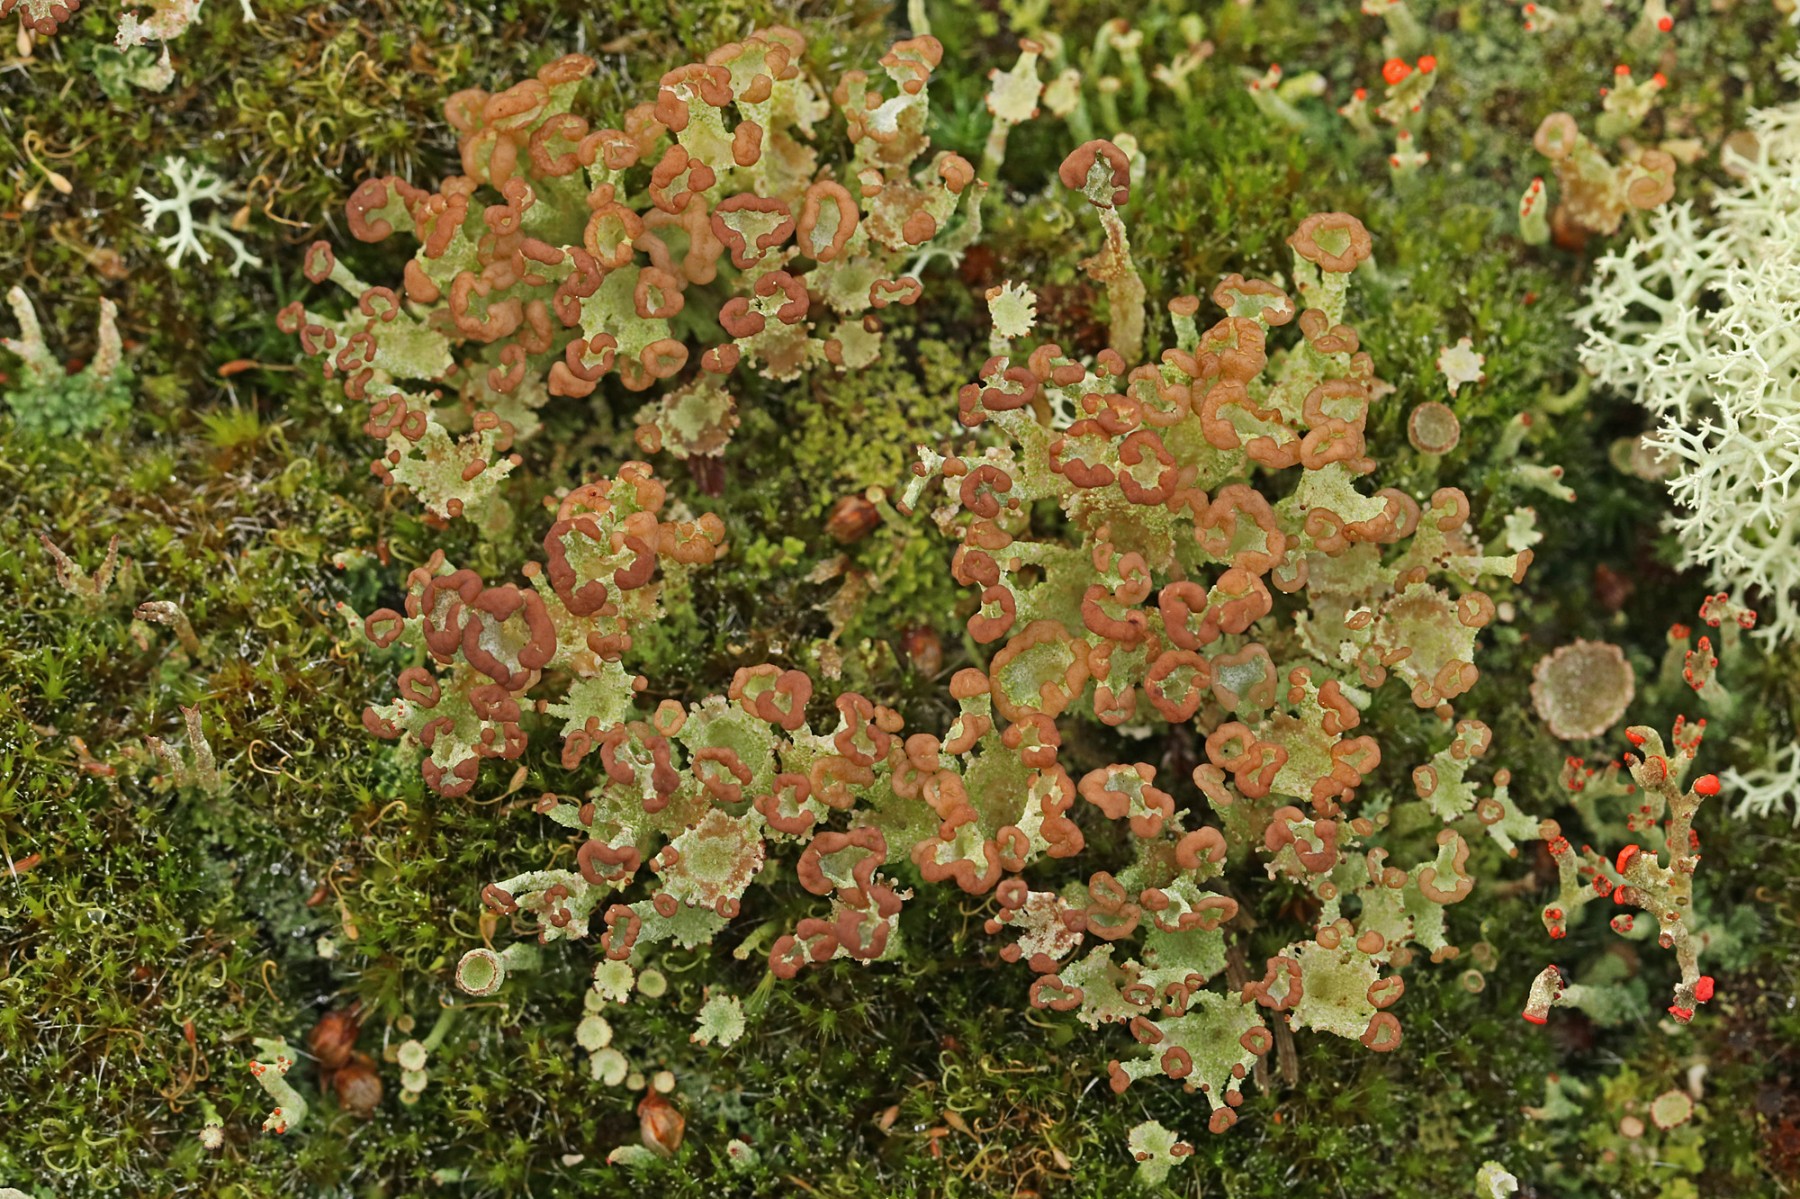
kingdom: Fungi
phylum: Ascomycota
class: Lecanoromycetes
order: Lecanorales
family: Cladoniaceae
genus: Cladonia
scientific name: Cladonia ramulosa
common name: kliddet bægerlav
